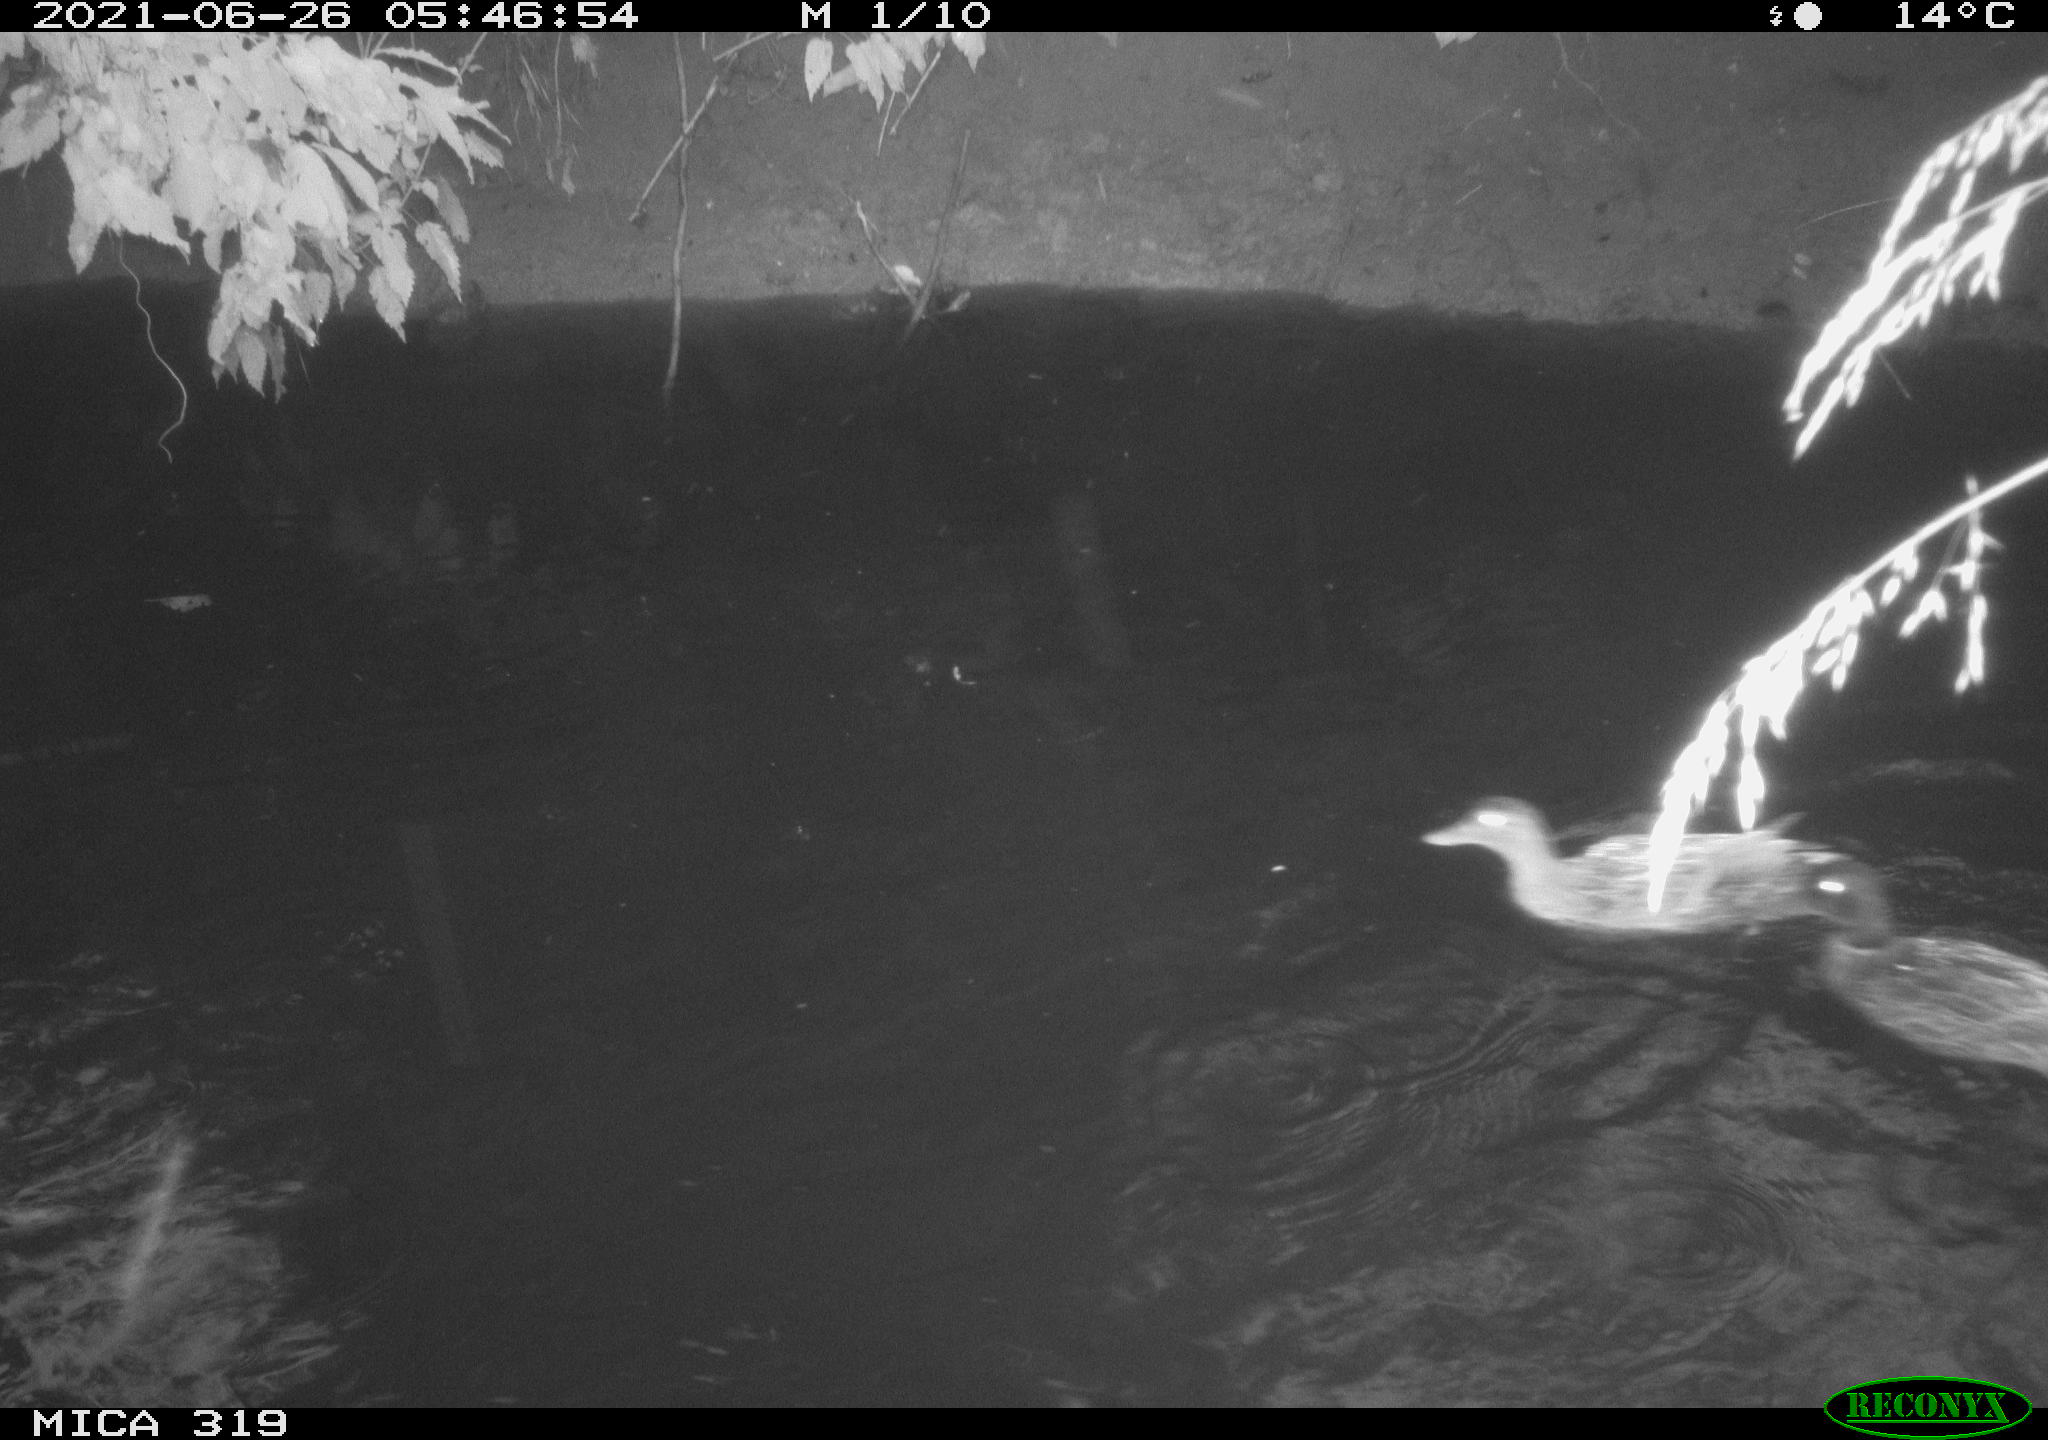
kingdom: Animalia
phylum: Chordata
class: Aves
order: Anseriformes
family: Anatidae
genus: Anas
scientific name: Anas platyrhynchos
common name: Mallard
